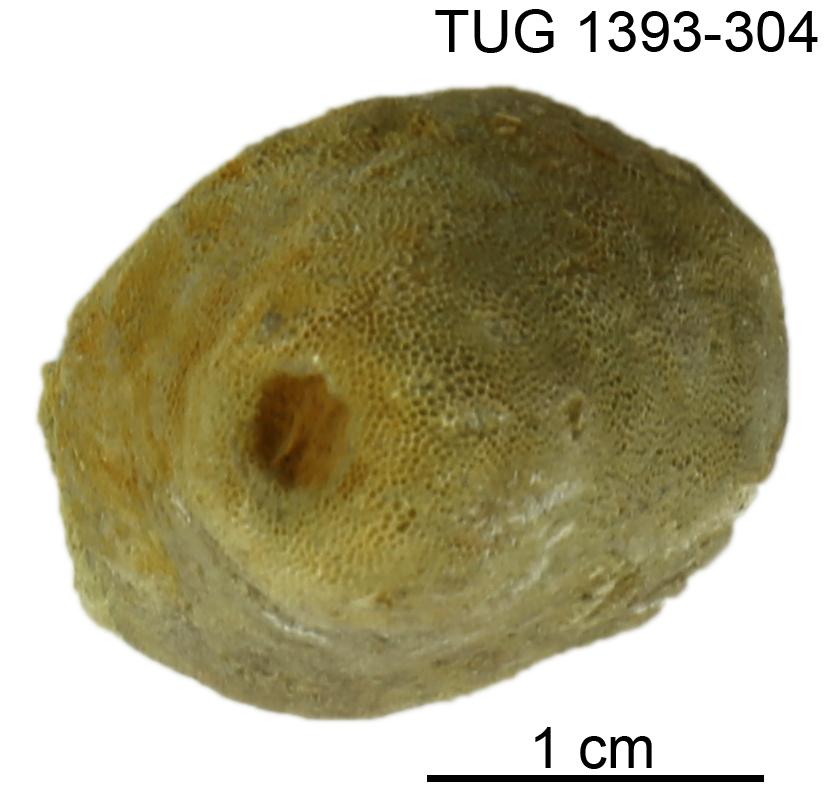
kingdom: Animalia
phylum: Bryozoa
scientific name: Bryozoa
